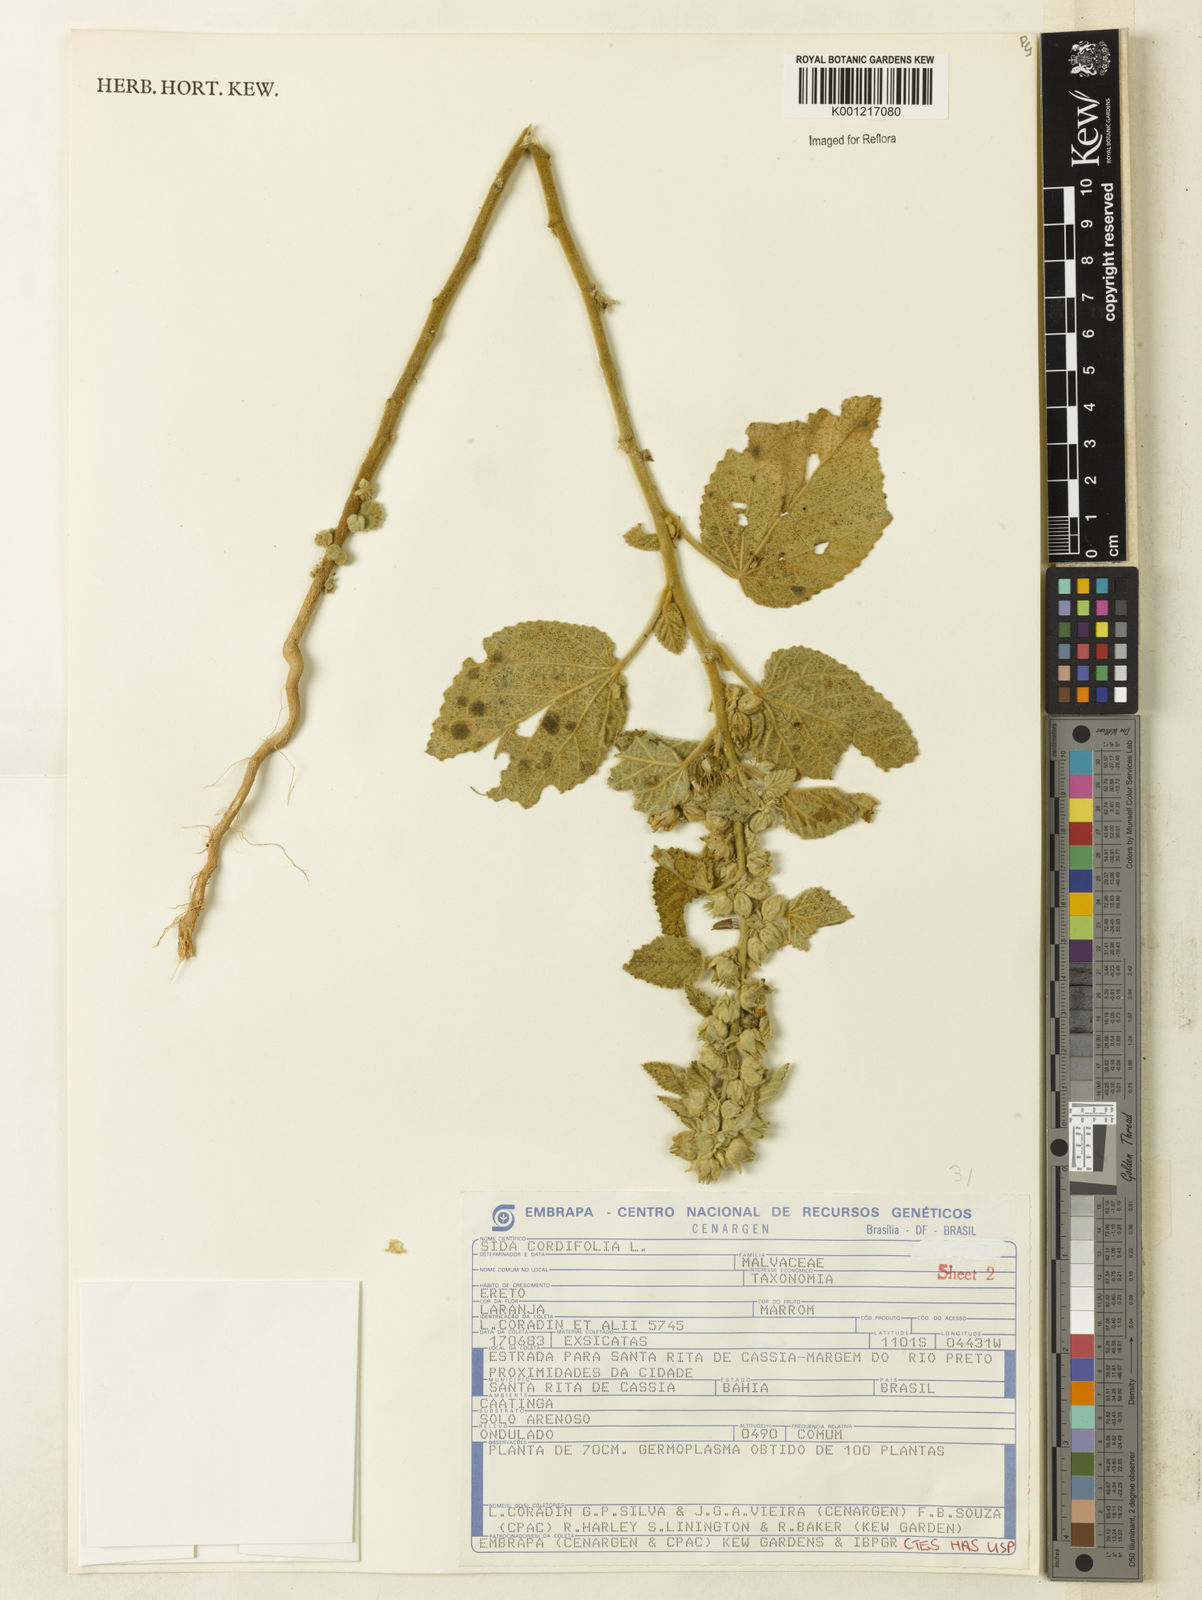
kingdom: Plantae
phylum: Tracheophyta
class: Magnoliopsida
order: Malvales
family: Malvaceae
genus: Sida
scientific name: Sida cordifolia
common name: Ilima
